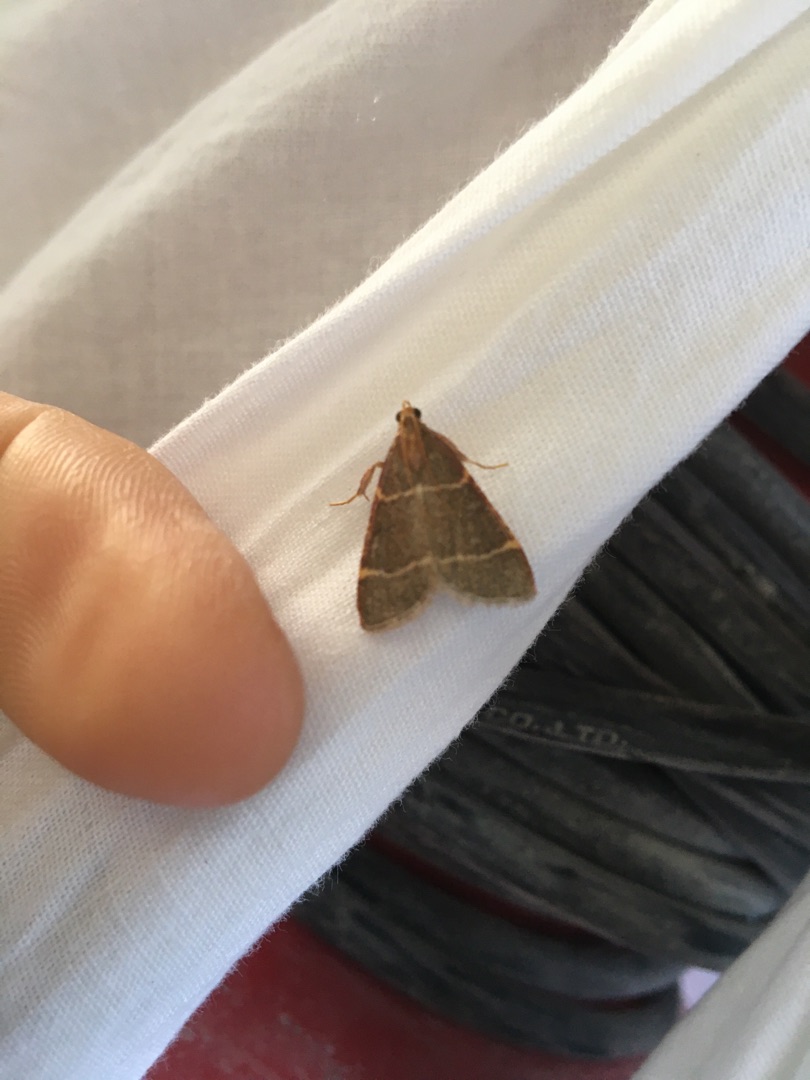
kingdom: Animalia
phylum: Arthropoda
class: Insecta
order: Lepidoptera
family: Pyralidae
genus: Hypsopygia
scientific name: Hypsopygia glaucinalis
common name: Blågråt herkuleshalvmøl
